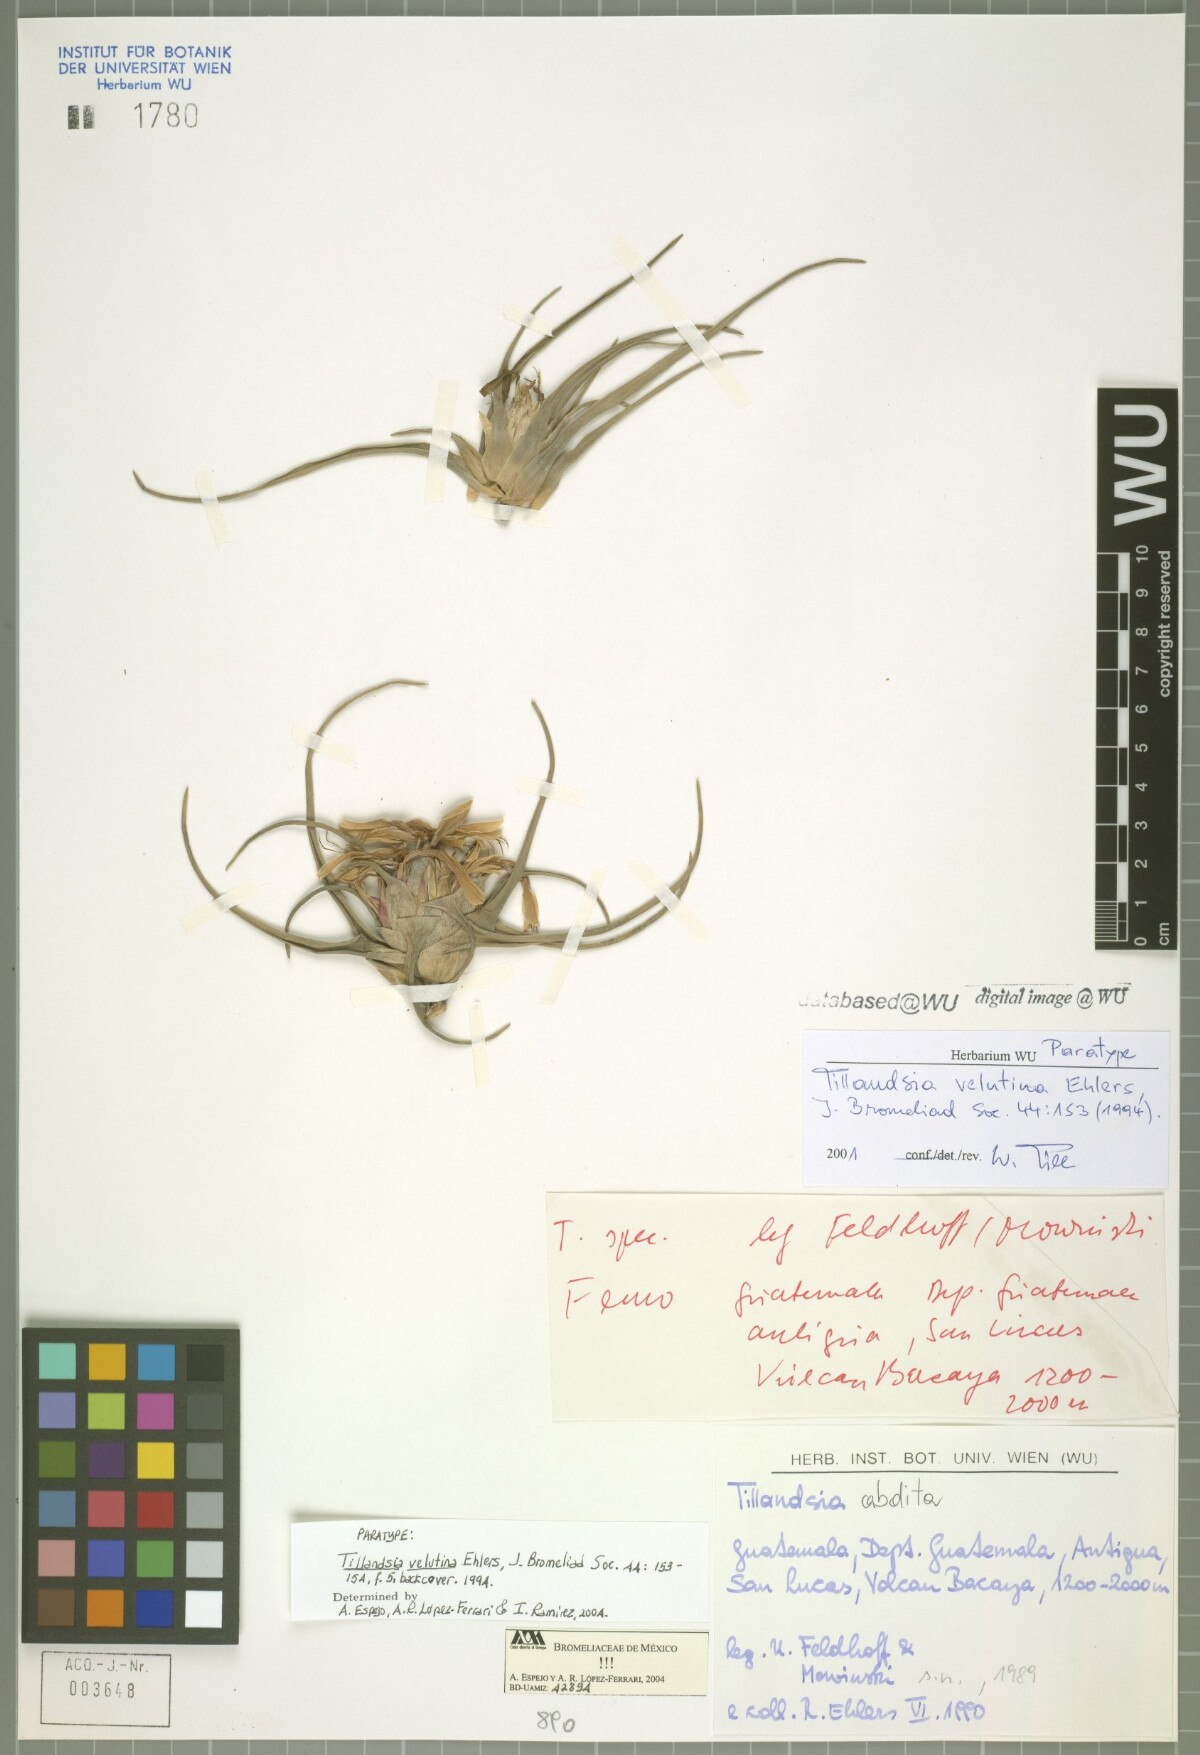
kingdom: Plantae
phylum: Tracheophyta
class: Liliopsida
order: Poales
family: Bromeliaceae
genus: Tillandsia
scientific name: Tillandsia velutina
